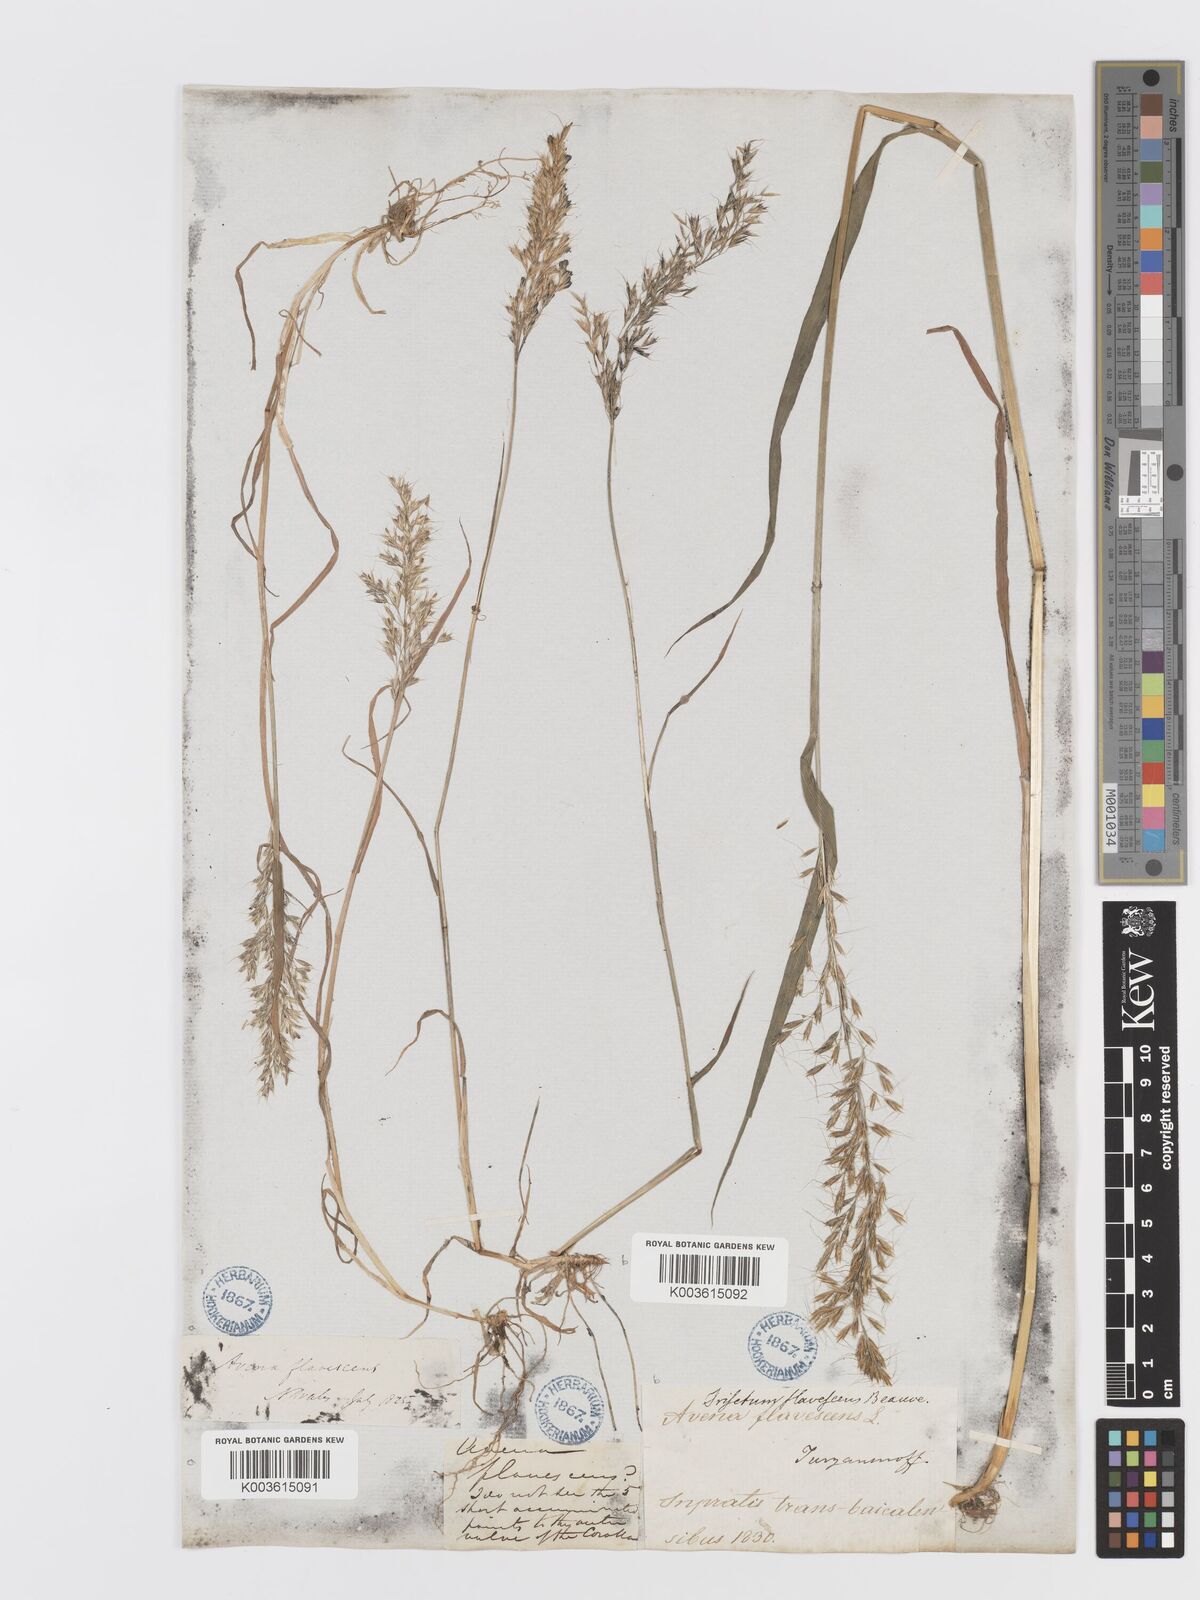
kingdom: Plantae
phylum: Tracheophyta
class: Liliopsida
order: Poales
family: Poaceae
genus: Sibirotrisetum
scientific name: Sibirotrisetum sibiricum
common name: Siberian false oat
